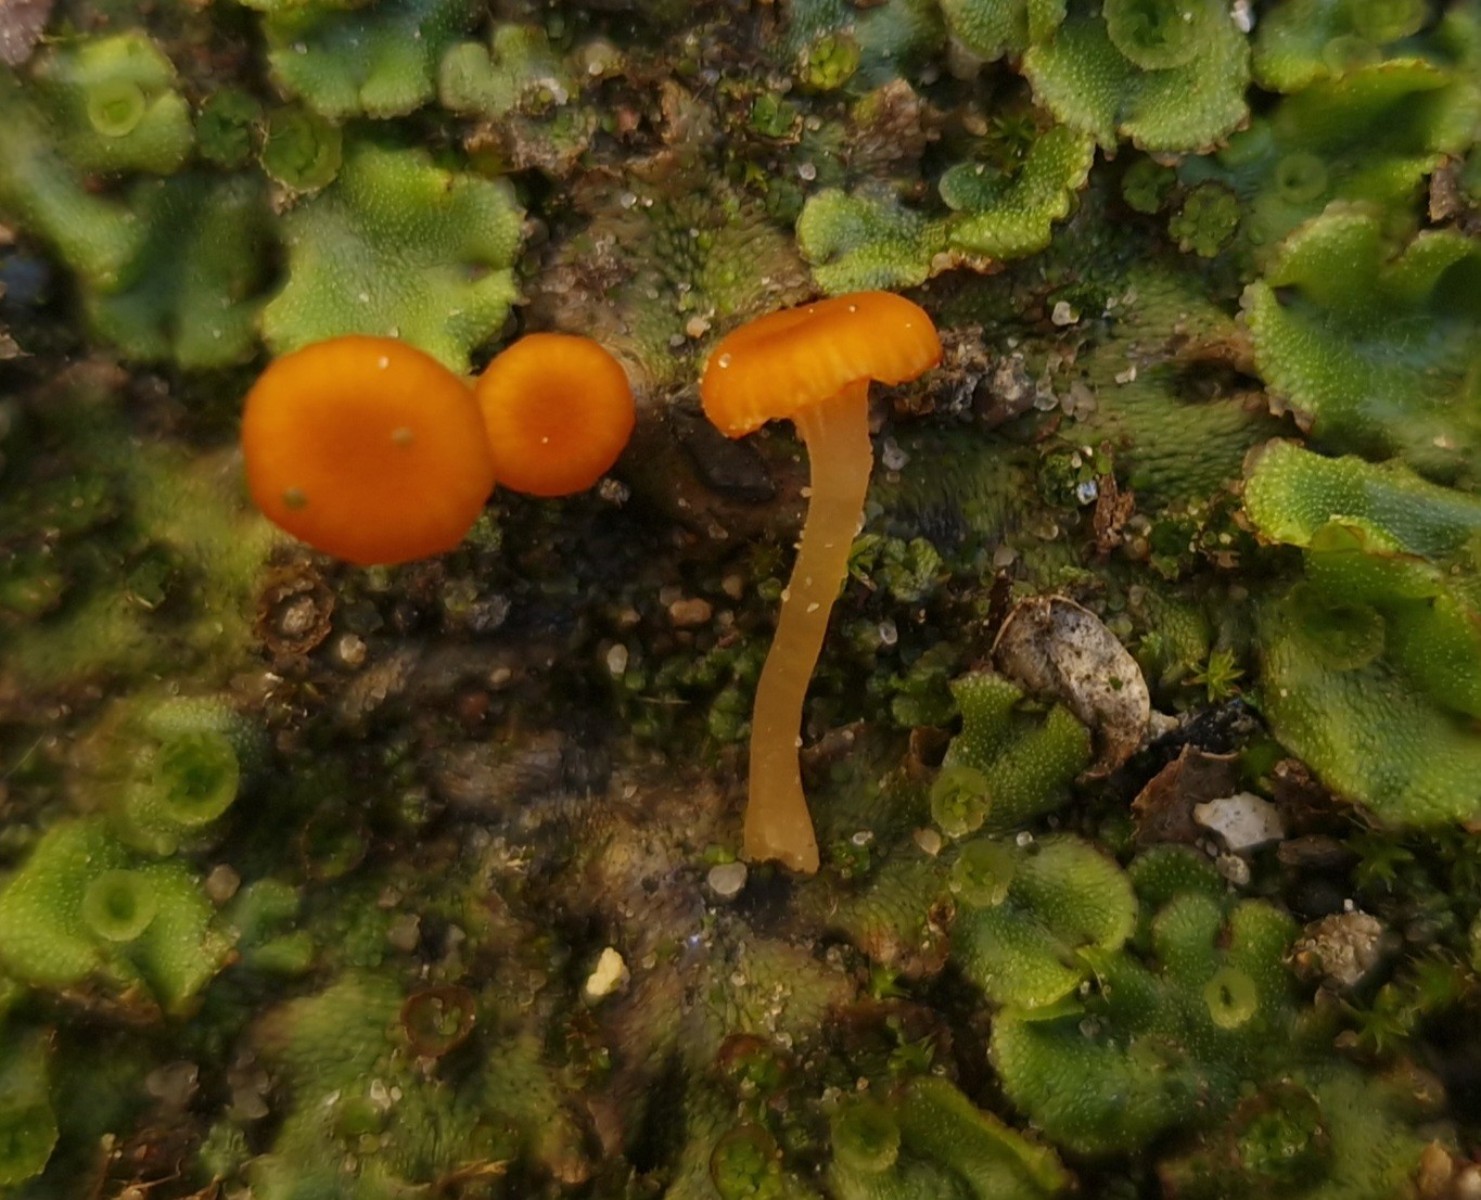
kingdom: Fungi
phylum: Basidiomycota
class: Agaricomycetes
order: Hymenochaetales
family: Rickenellaceae
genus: Loreleia
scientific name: Loreleia
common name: mosnavlehat
